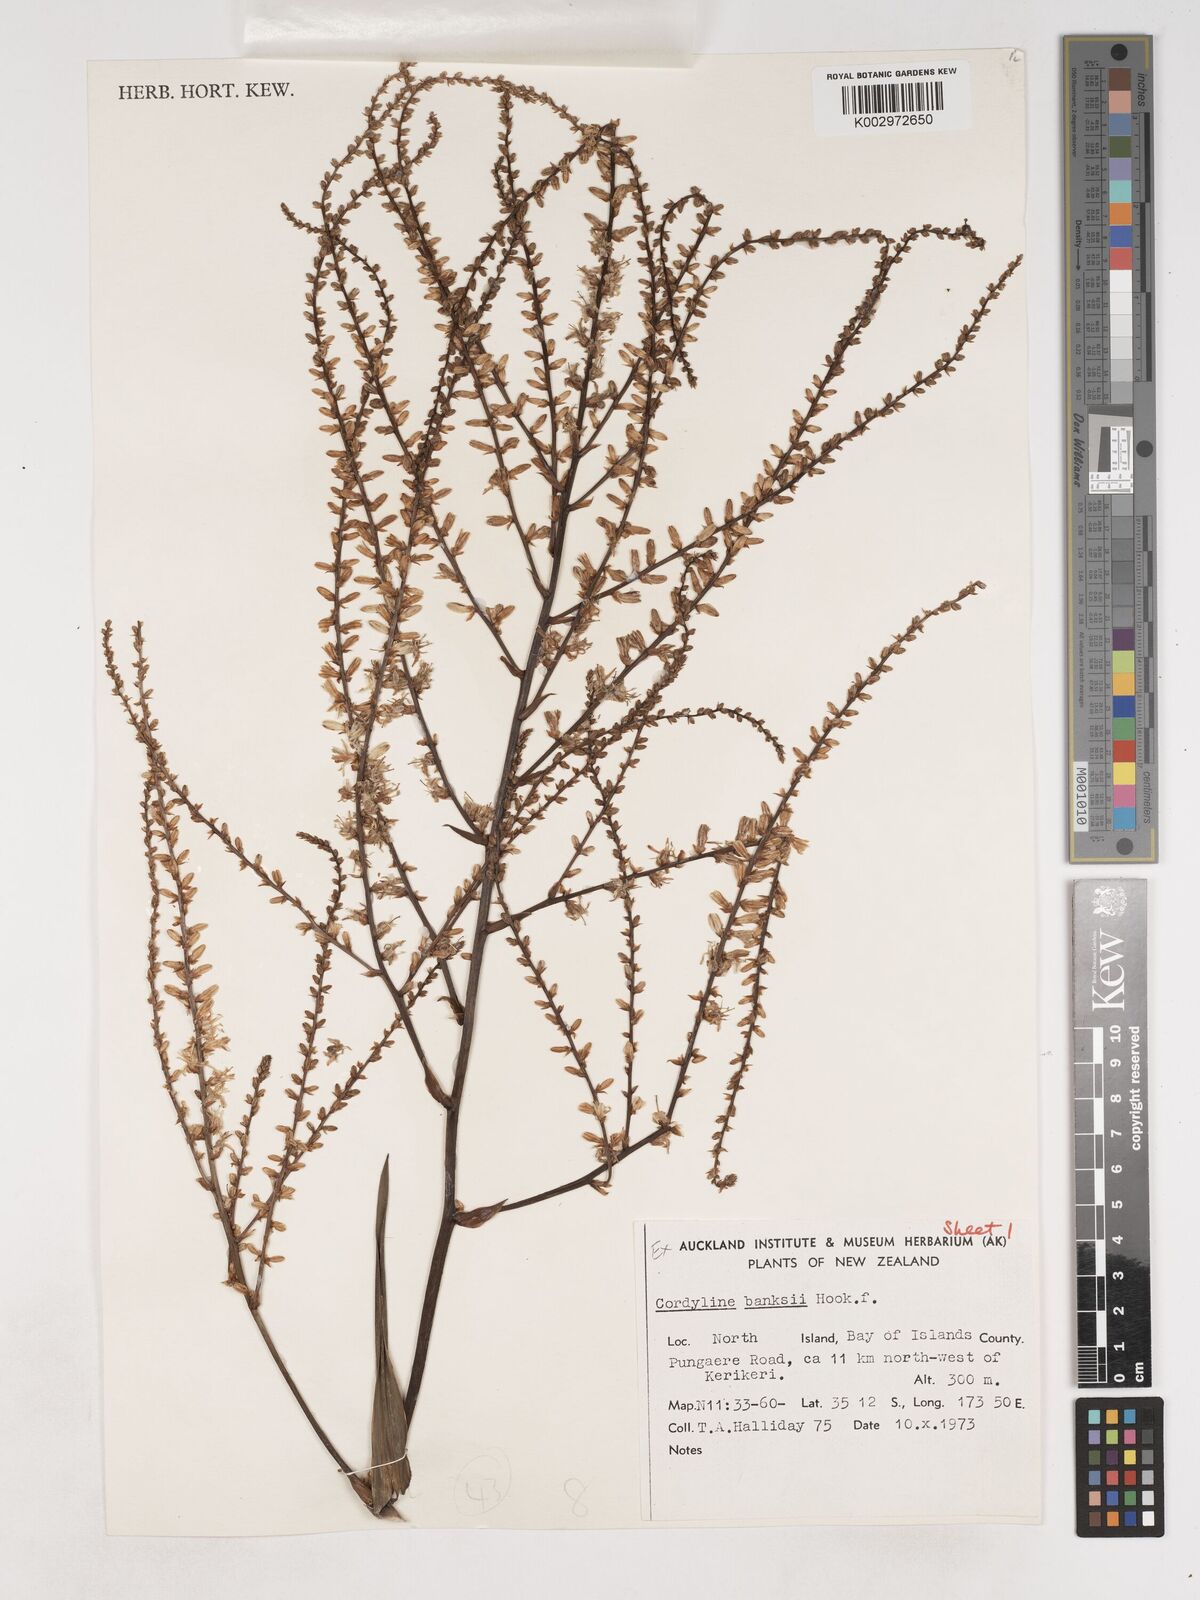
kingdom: Plantae
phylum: Tracheophyta
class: Liliopsida
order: Asparagales
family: Asparagaceae
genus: Cordyline
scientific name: Cordyline banksii
